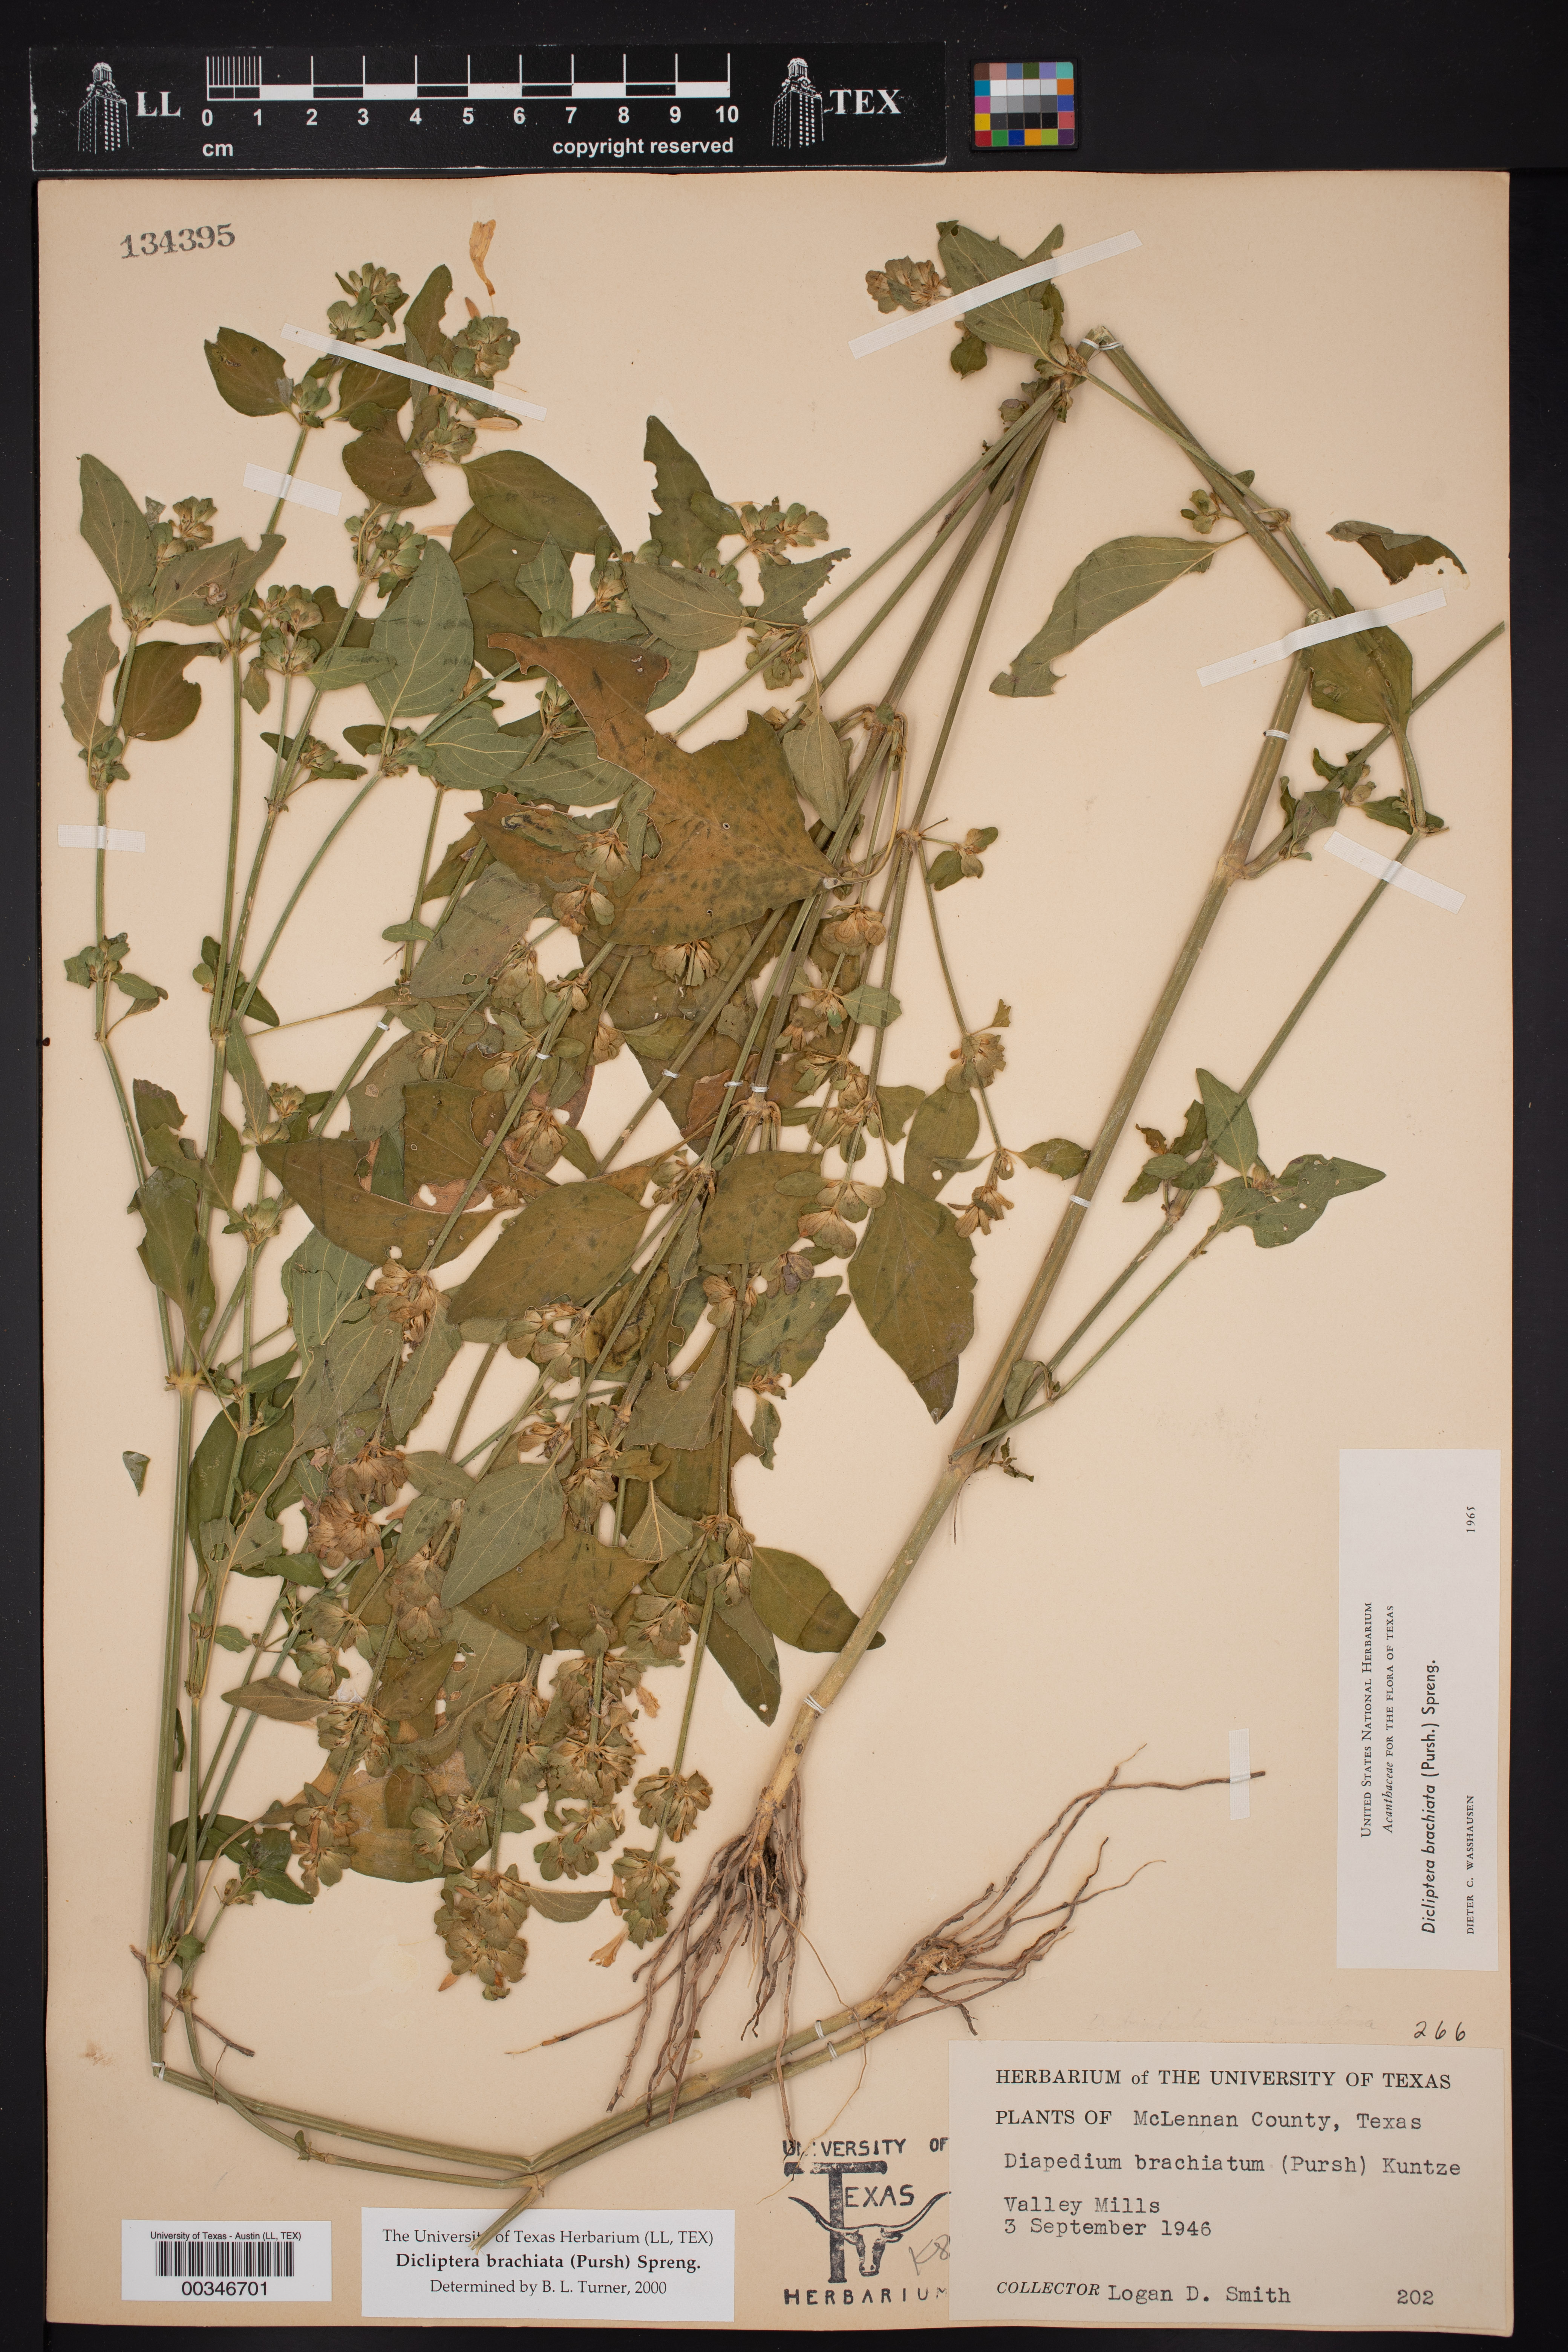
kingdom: Plantae
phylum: Tracheophyta
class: Magnoliopsida
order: Lamiales
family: Acanthaceae
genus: Dicliptera
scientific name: Dicliptera brachiata
